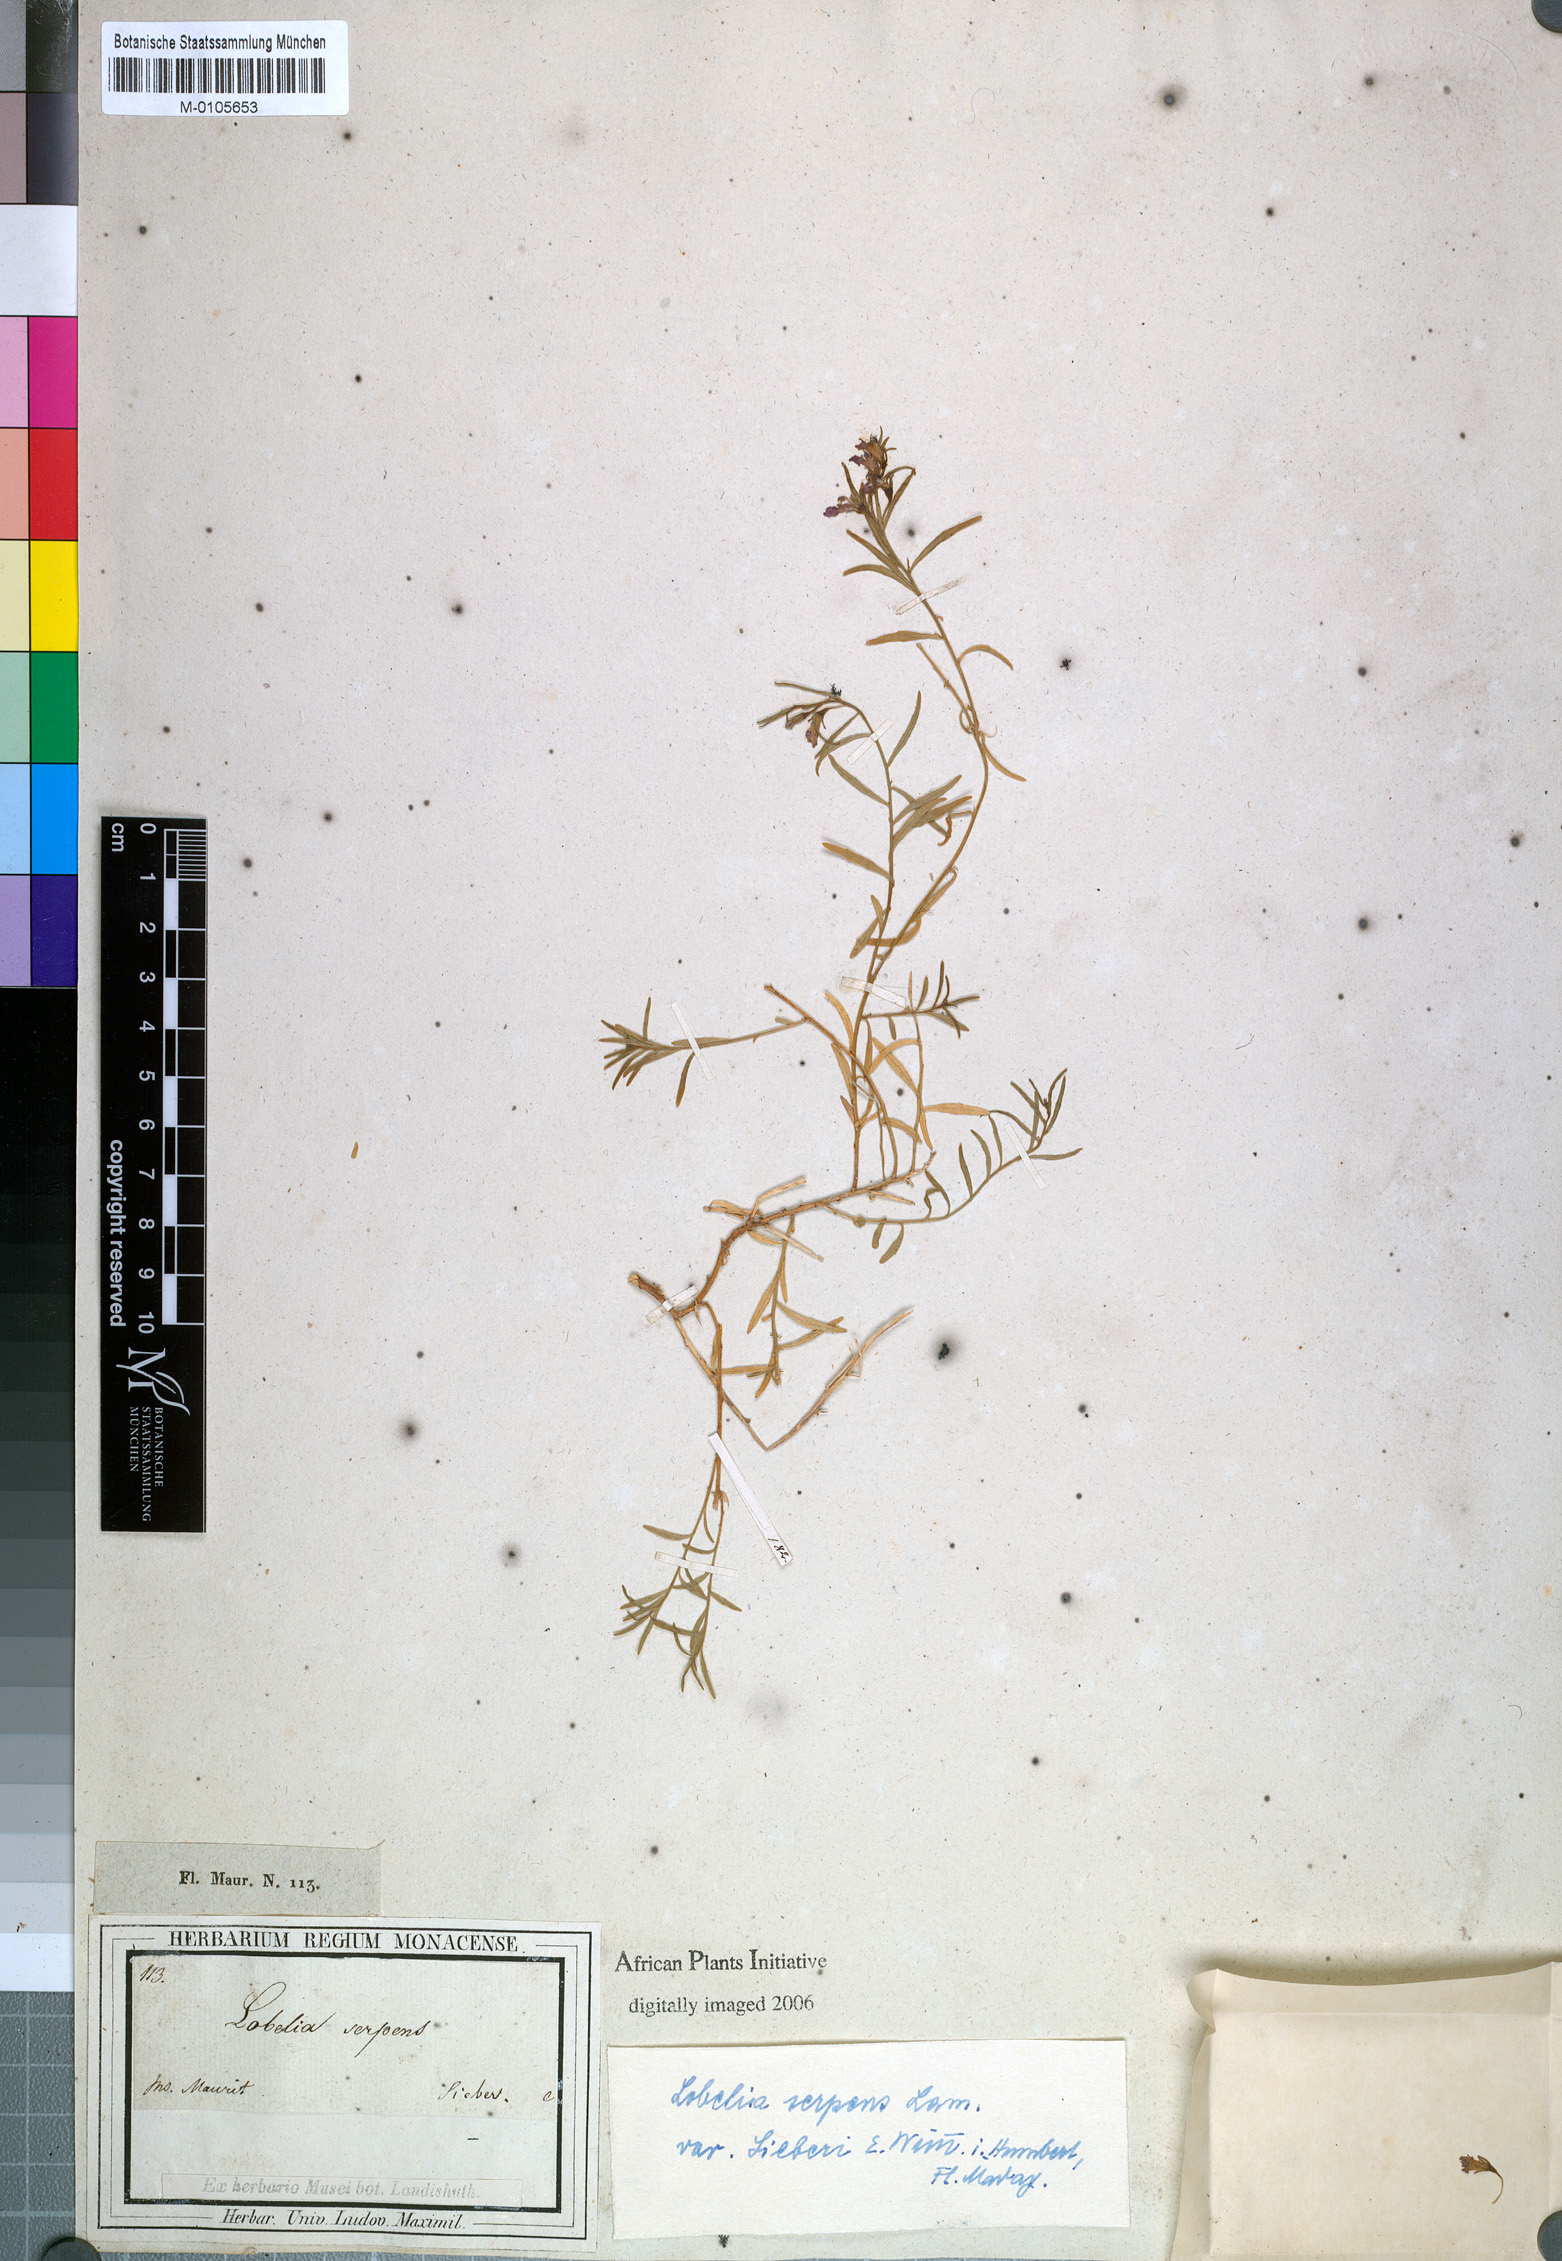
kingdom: Plantae
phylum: Tracheophyta
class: Magnoliopsida
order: Asterales
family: Campanulaceae
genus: Lobelia
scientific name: Lobelia serpens
